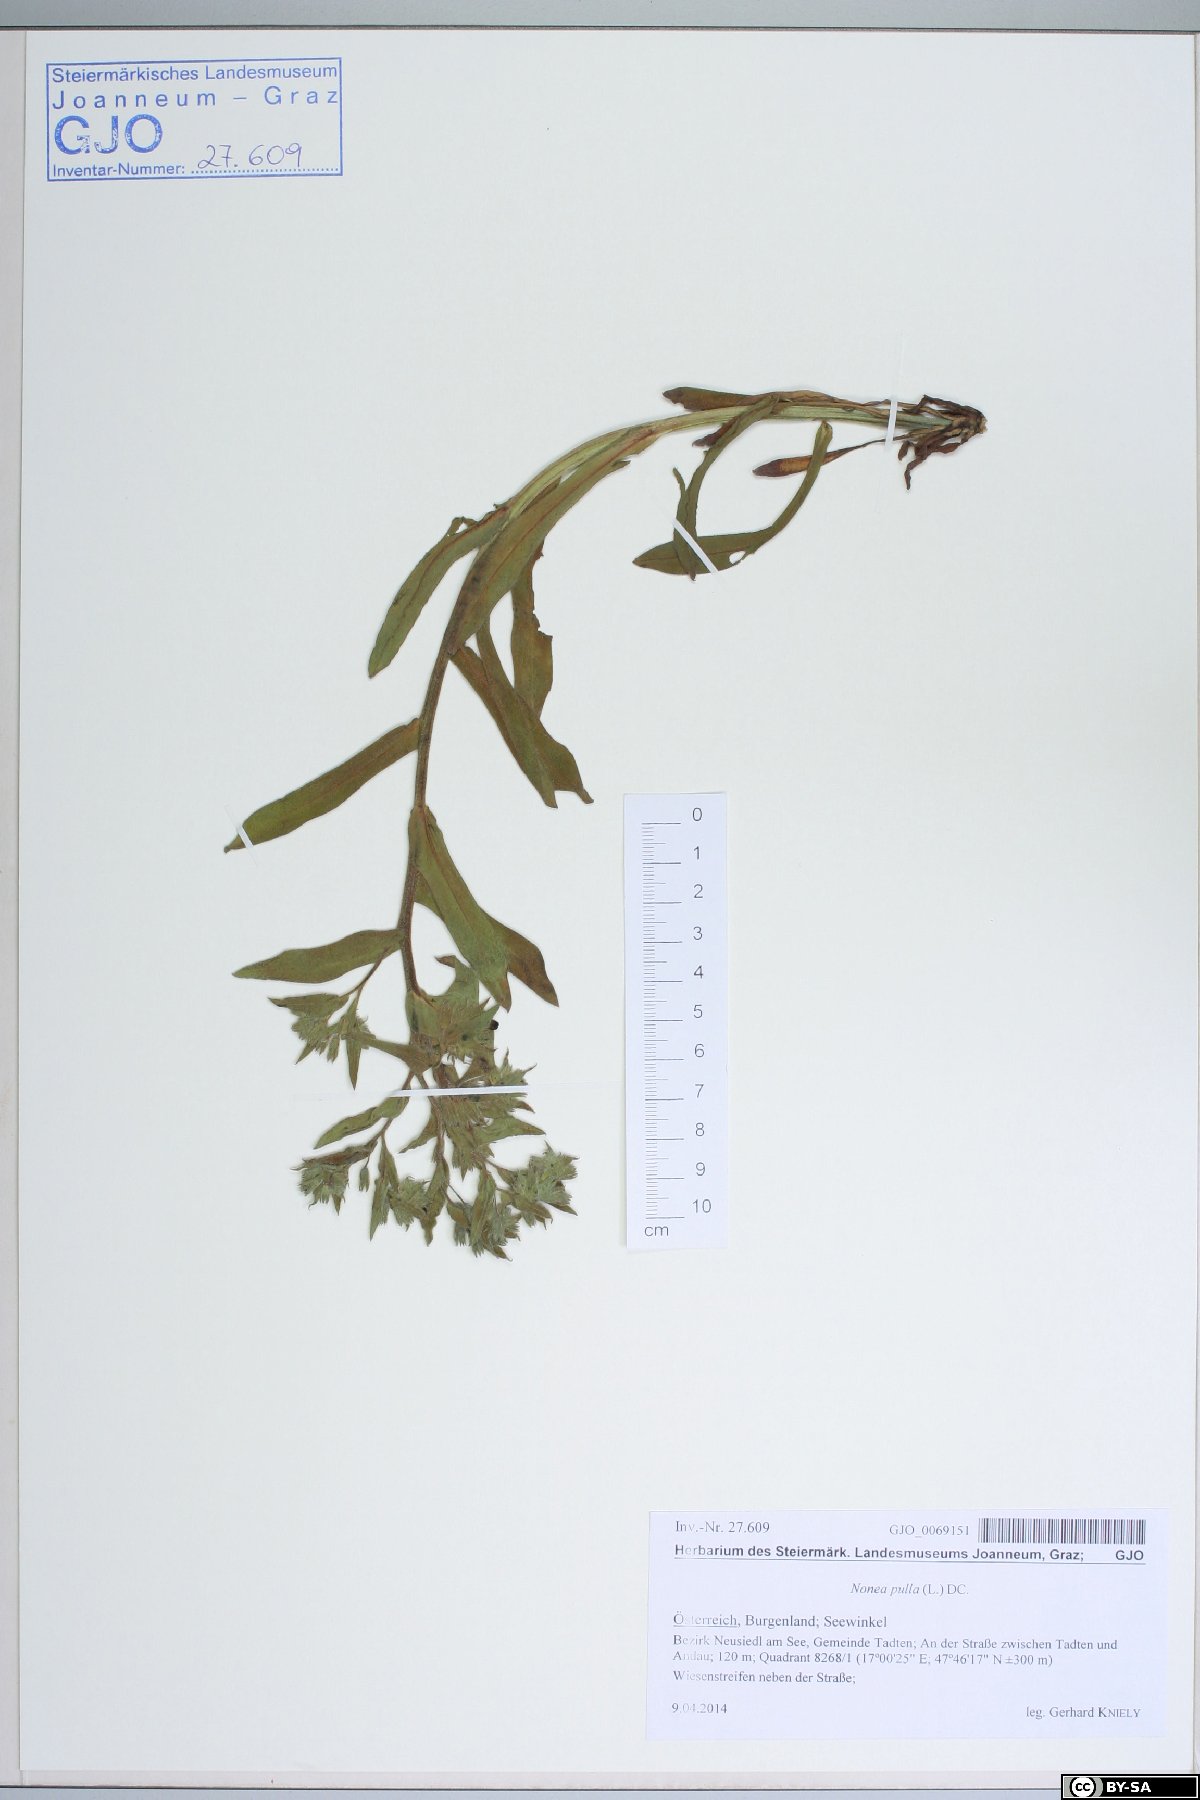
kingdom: Plantae
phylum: Tracheophyta
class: Magnoliopsida
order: Boraginales
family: Boraginaceae
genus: Nonea
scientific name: Nonea pulla
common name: Brown nonea
